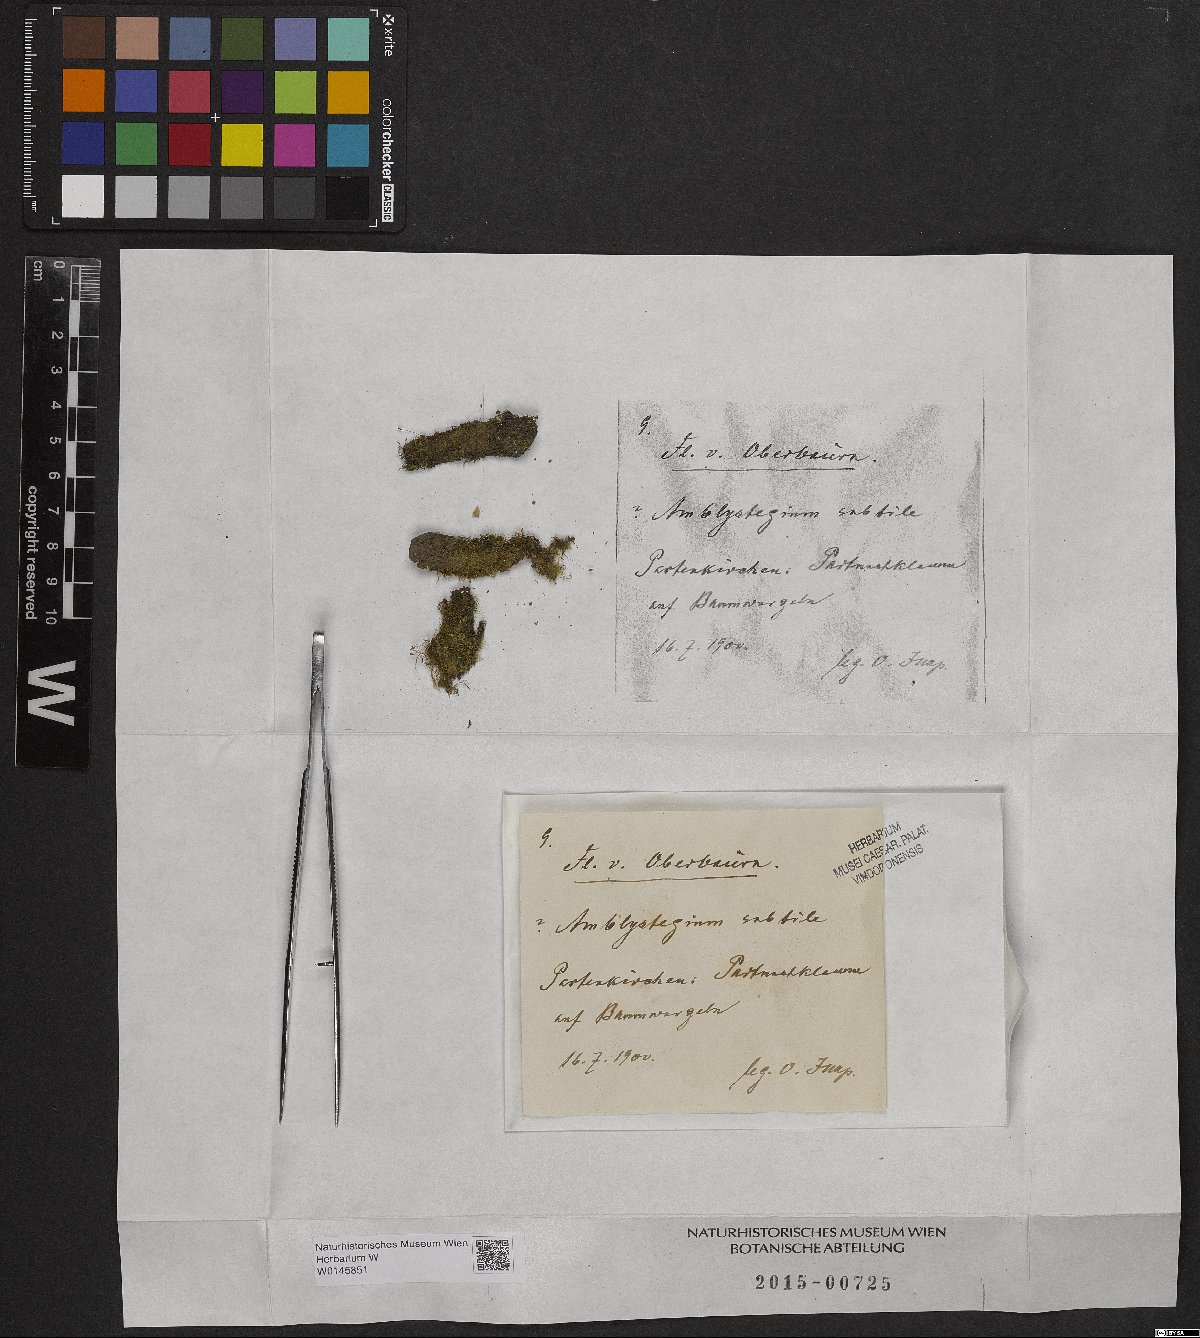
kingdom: Plantae
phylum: Bryophyta
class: Bryopsida
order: Hypnales
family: Amblystegiaceae
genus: Pseudoamblystegium
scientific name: Pseudoamblystegium subtile
